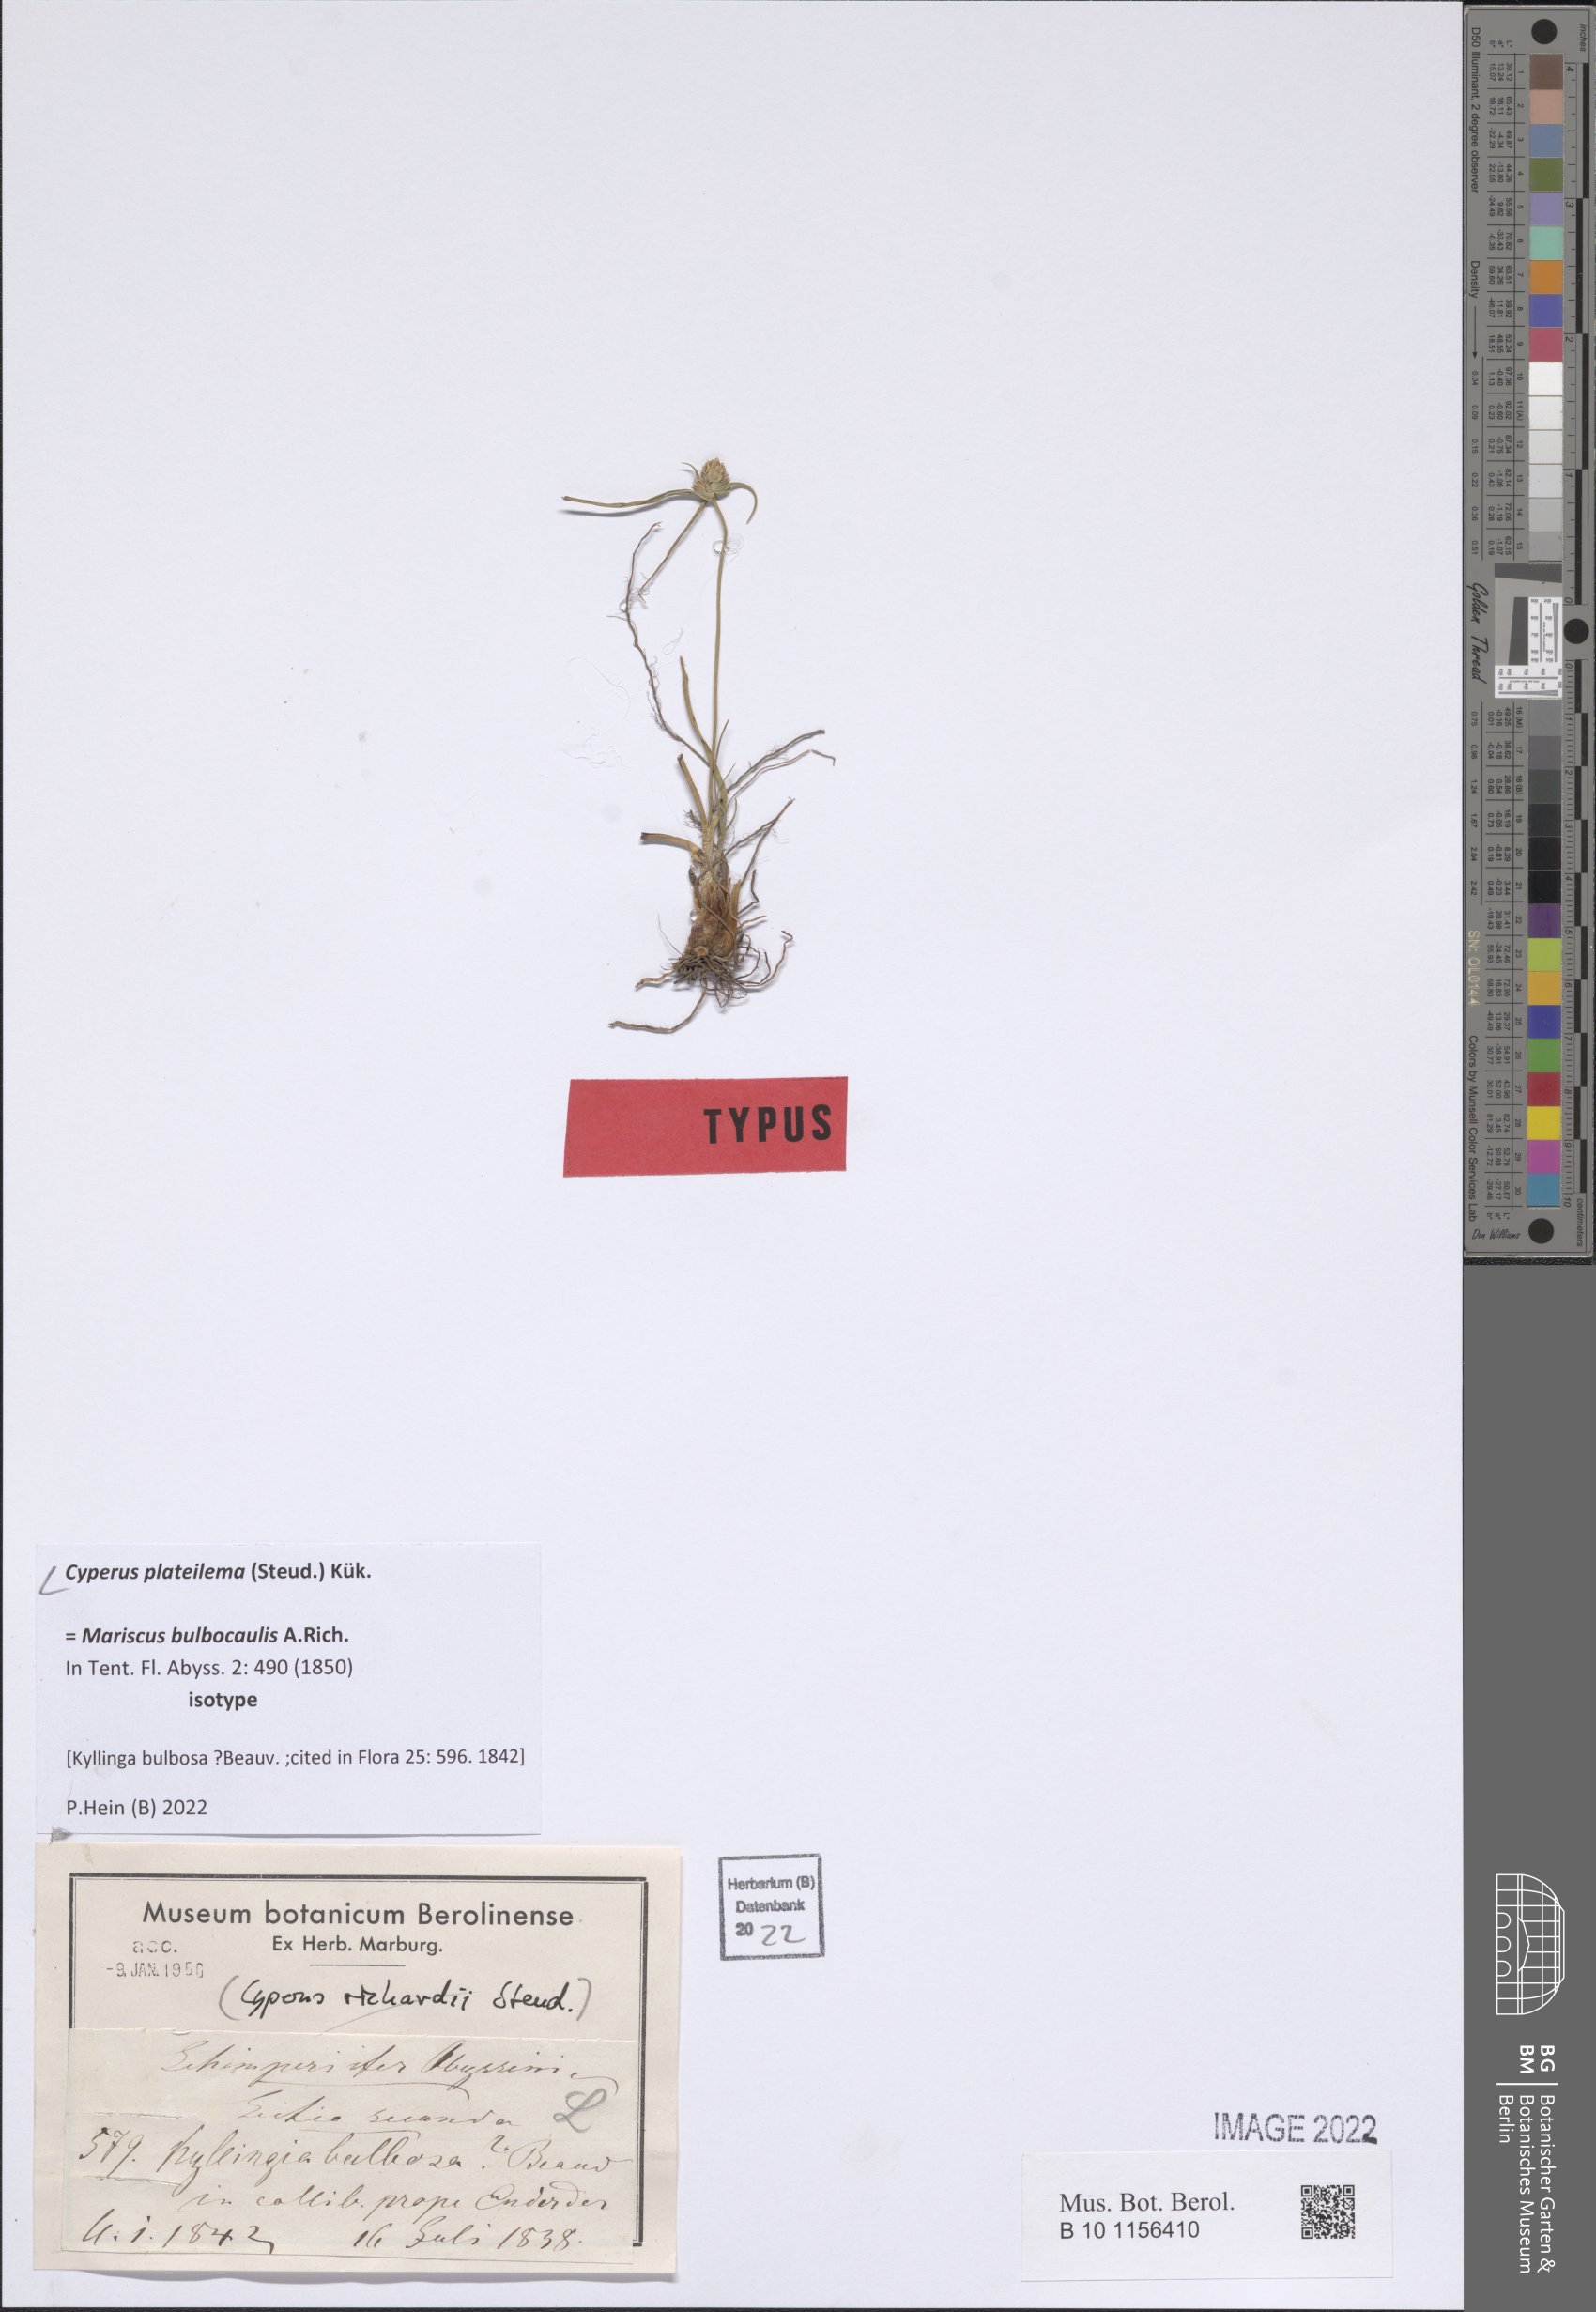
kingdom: Plantae
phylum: Tracheophyta
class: Liliopsida
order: Poales
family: Cyperaceae
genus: Cyperus
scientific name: Cyperus plateilema
